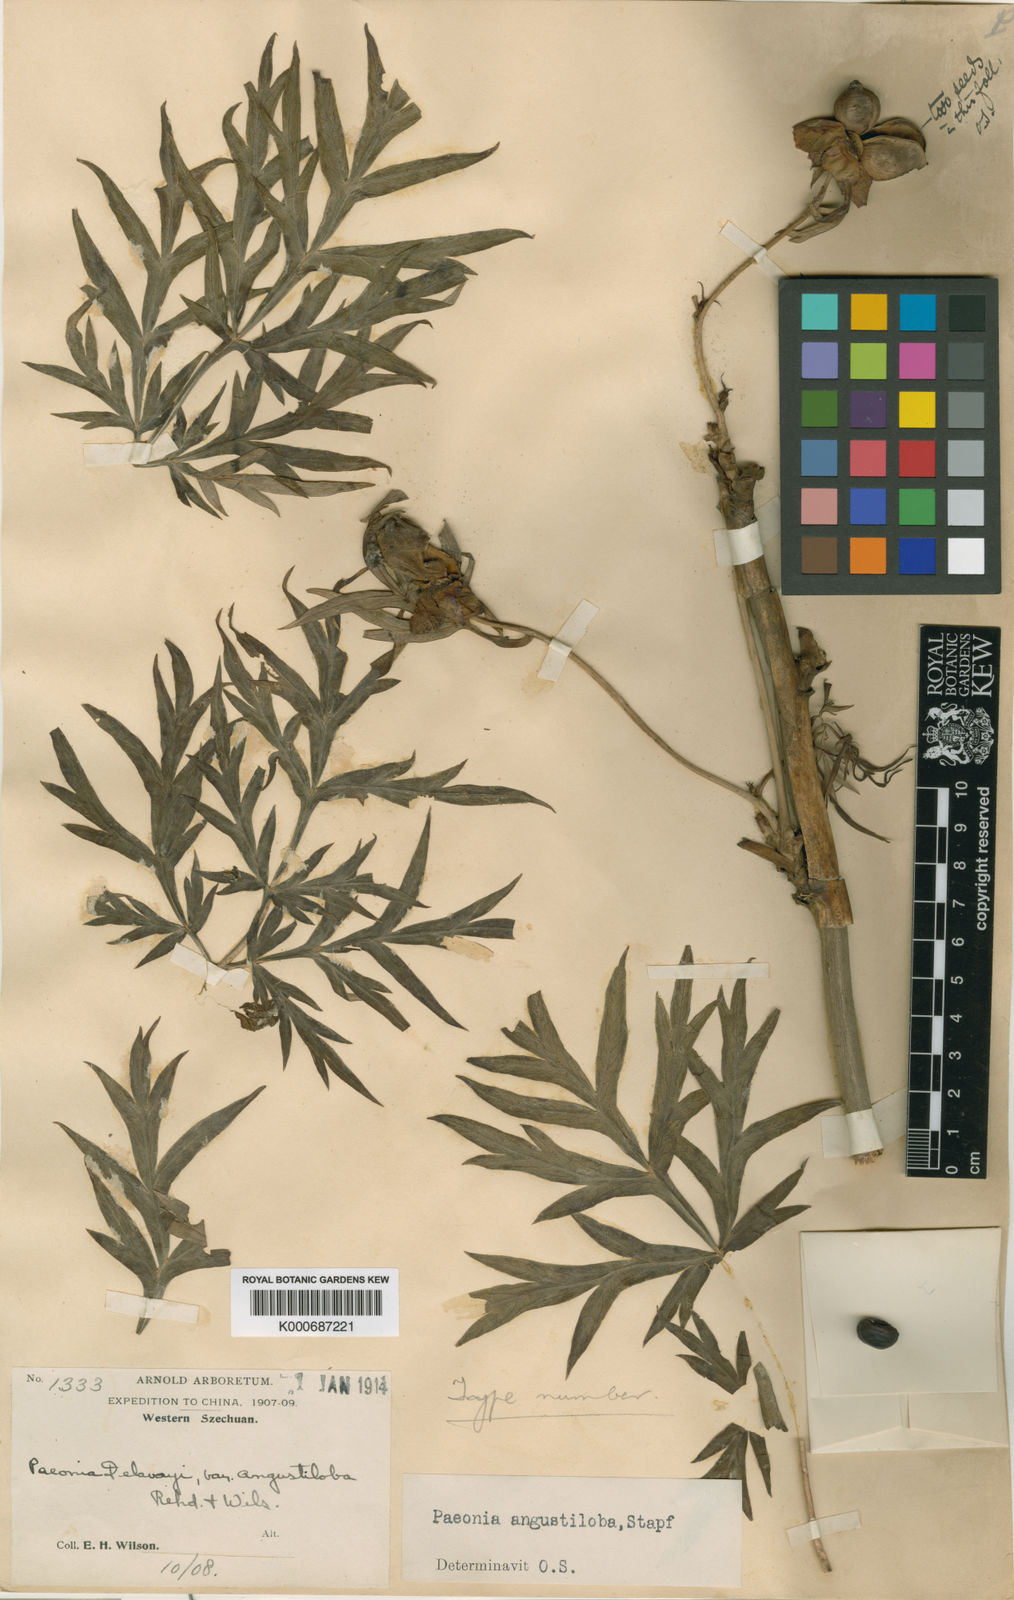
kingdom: Plantae
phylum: Tracheophyta
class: Magnoliopsida
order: Saxifragales
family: Paeoniaceae
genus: Paeonia
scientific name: Paeonia delavayi
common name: Dian mu dan
